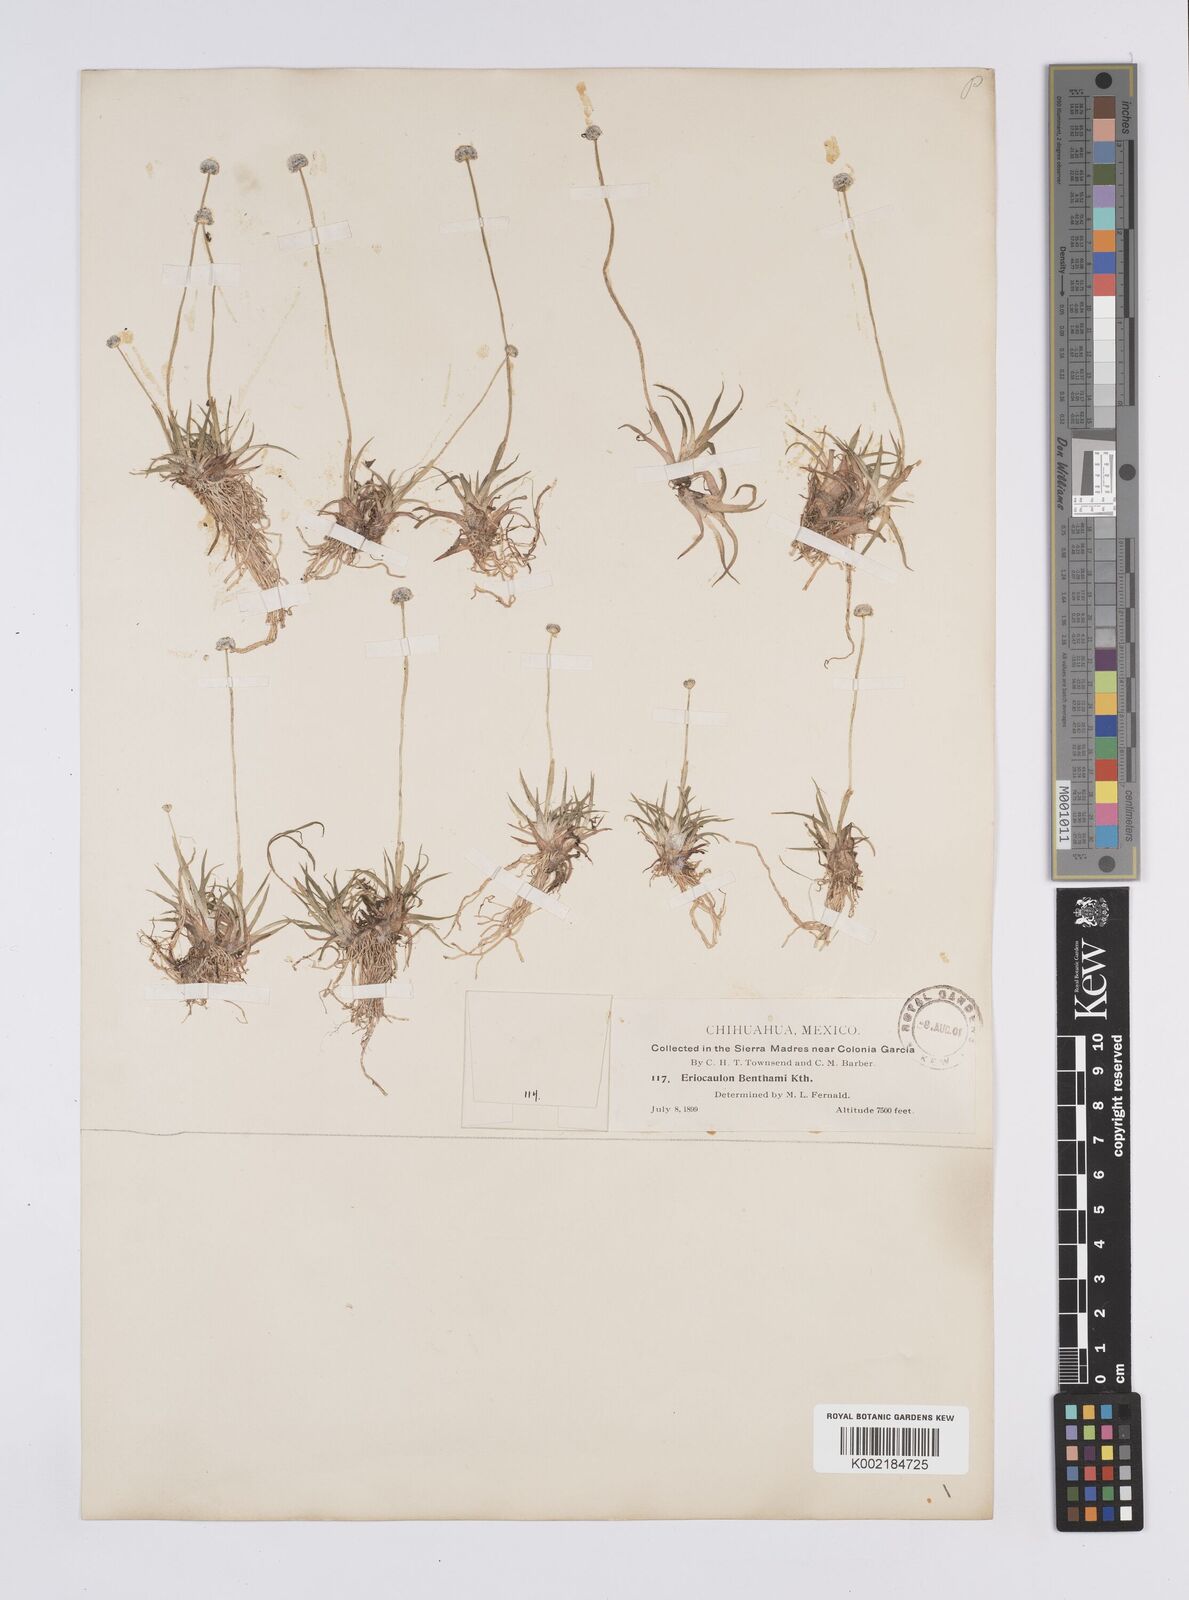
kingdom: Plantae
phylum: Tracheophyta
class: Liliopsida
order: Poales
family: Eriocaulaceae
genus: Eriocaulon
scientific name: Eriocaulon benthamii
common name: Bentham's pipewort
